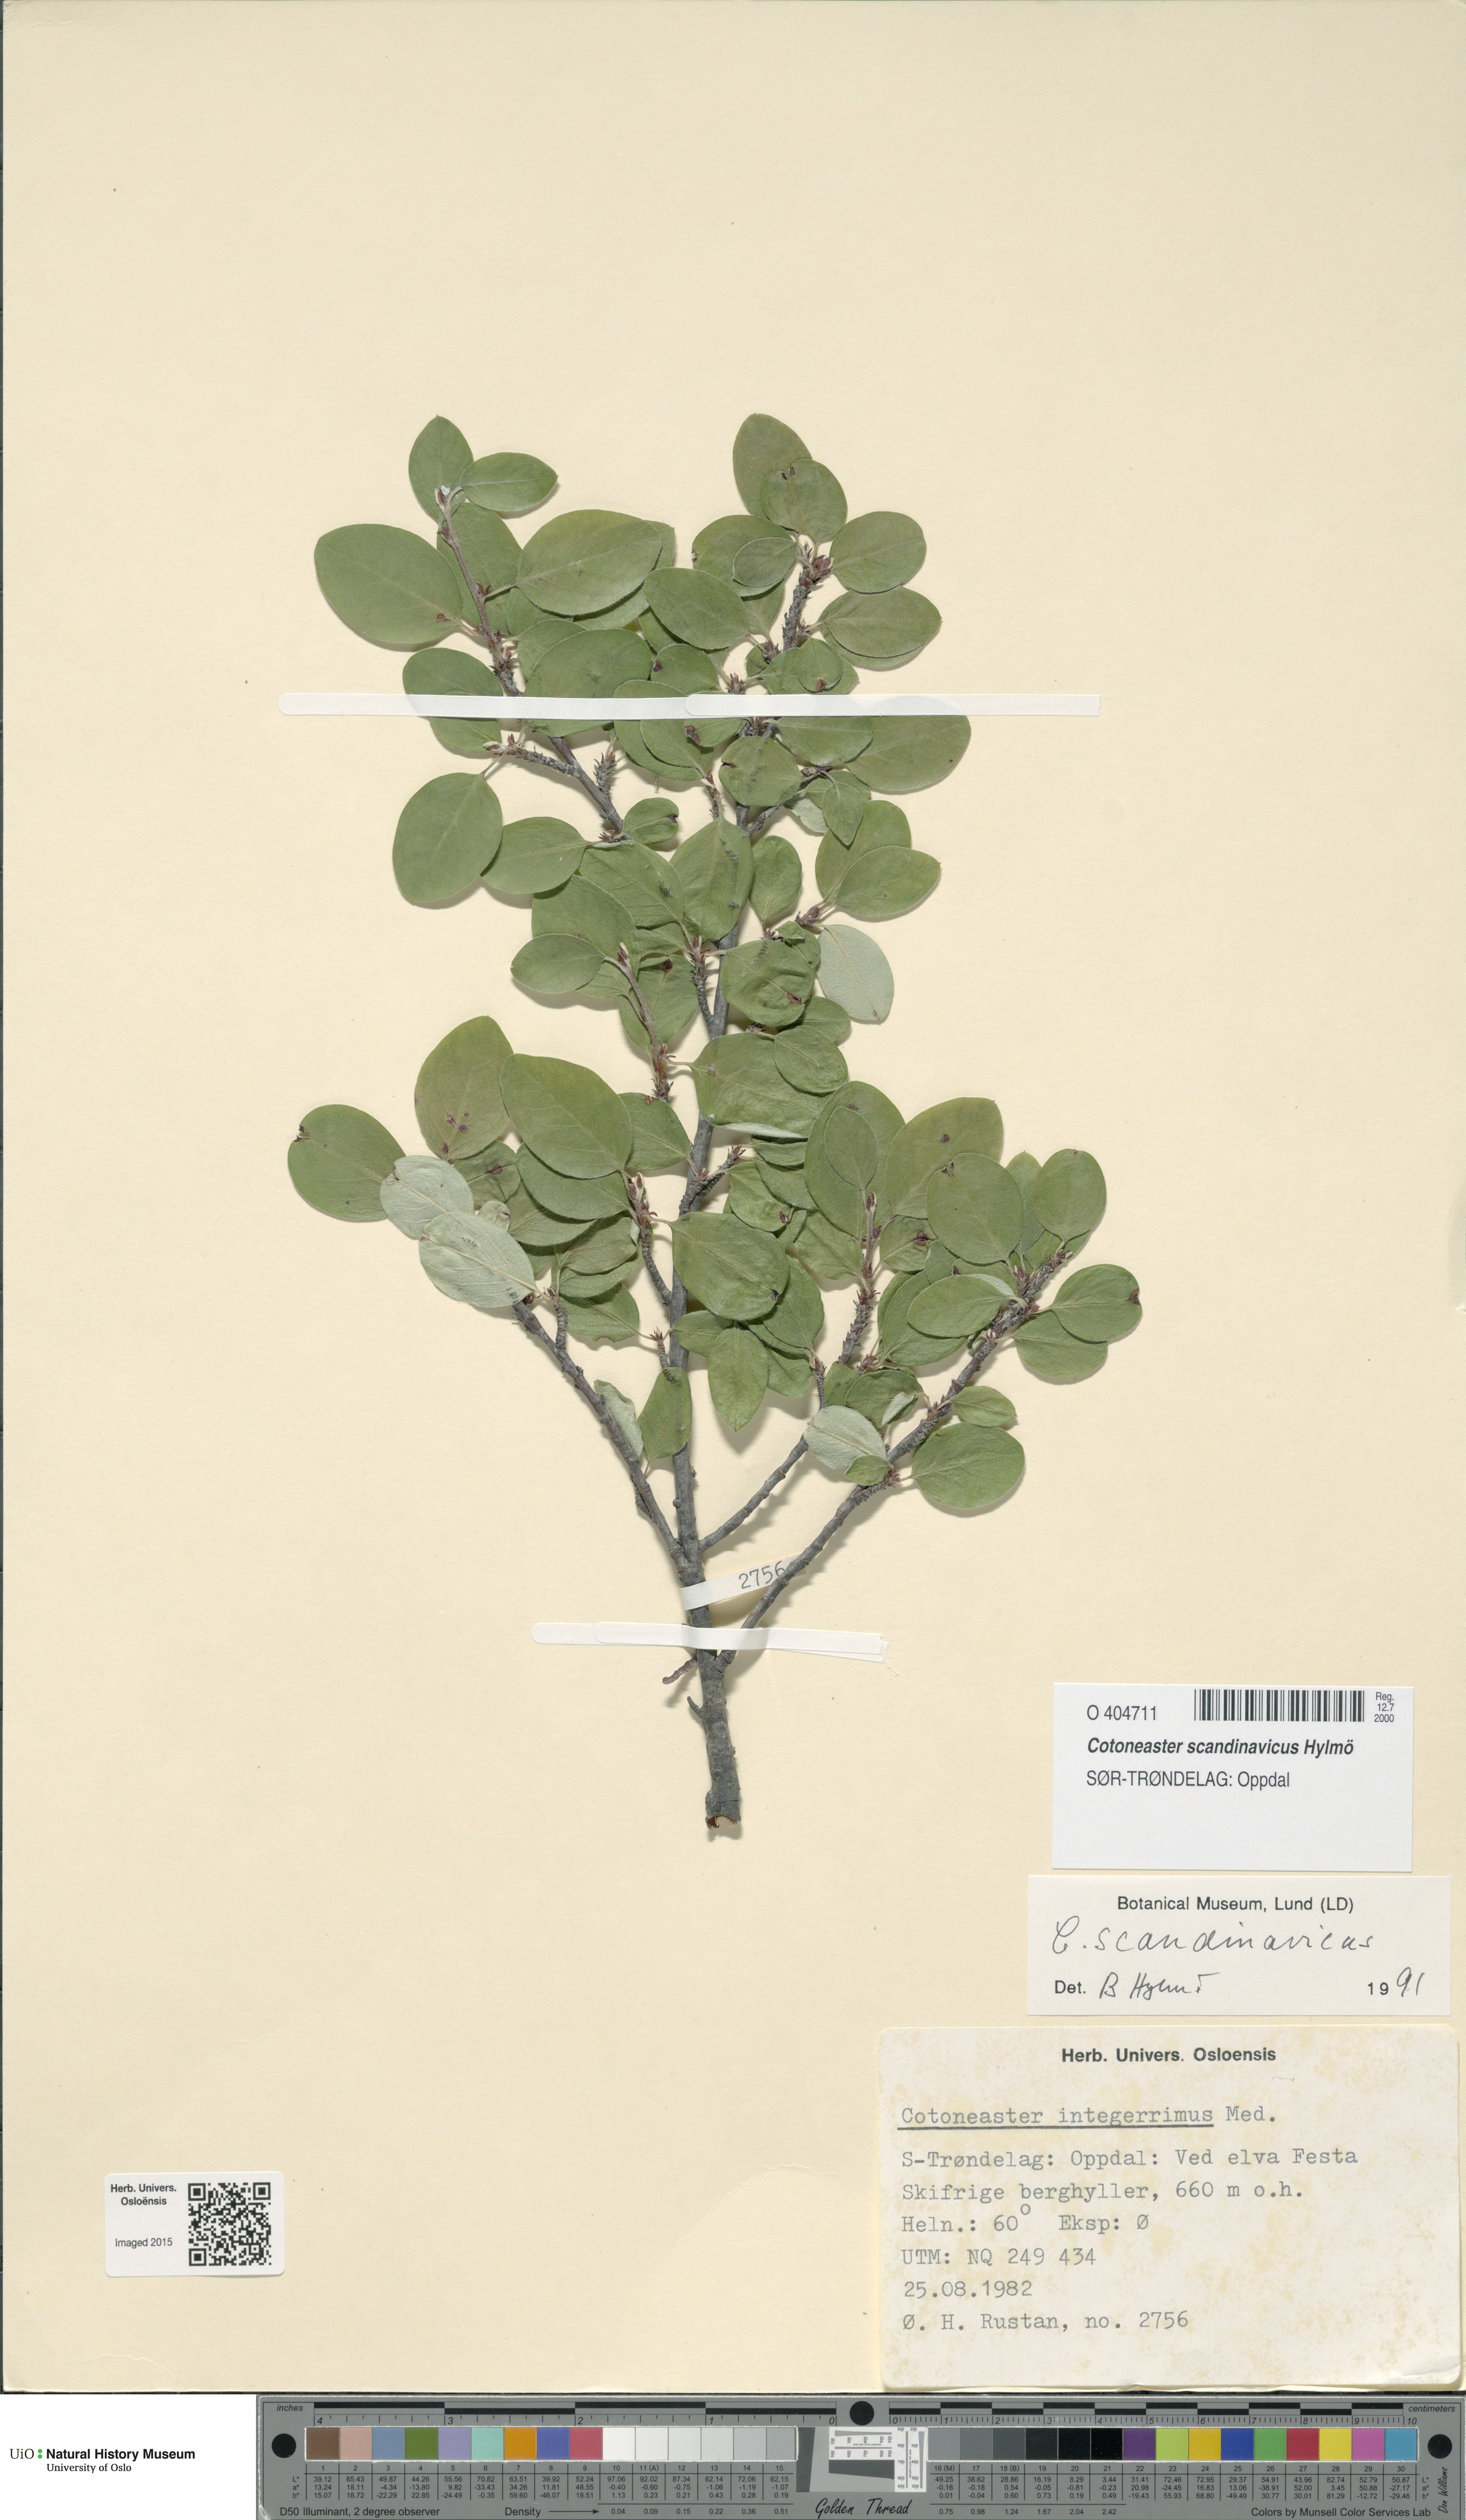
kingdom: Plantae
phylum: Tracheophyta
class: Magnoliopsida
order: Rosales
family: Rosaceae
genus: Cotoneaster
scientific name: Cotoneaster integerrimus
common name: Wild cotoneaster
